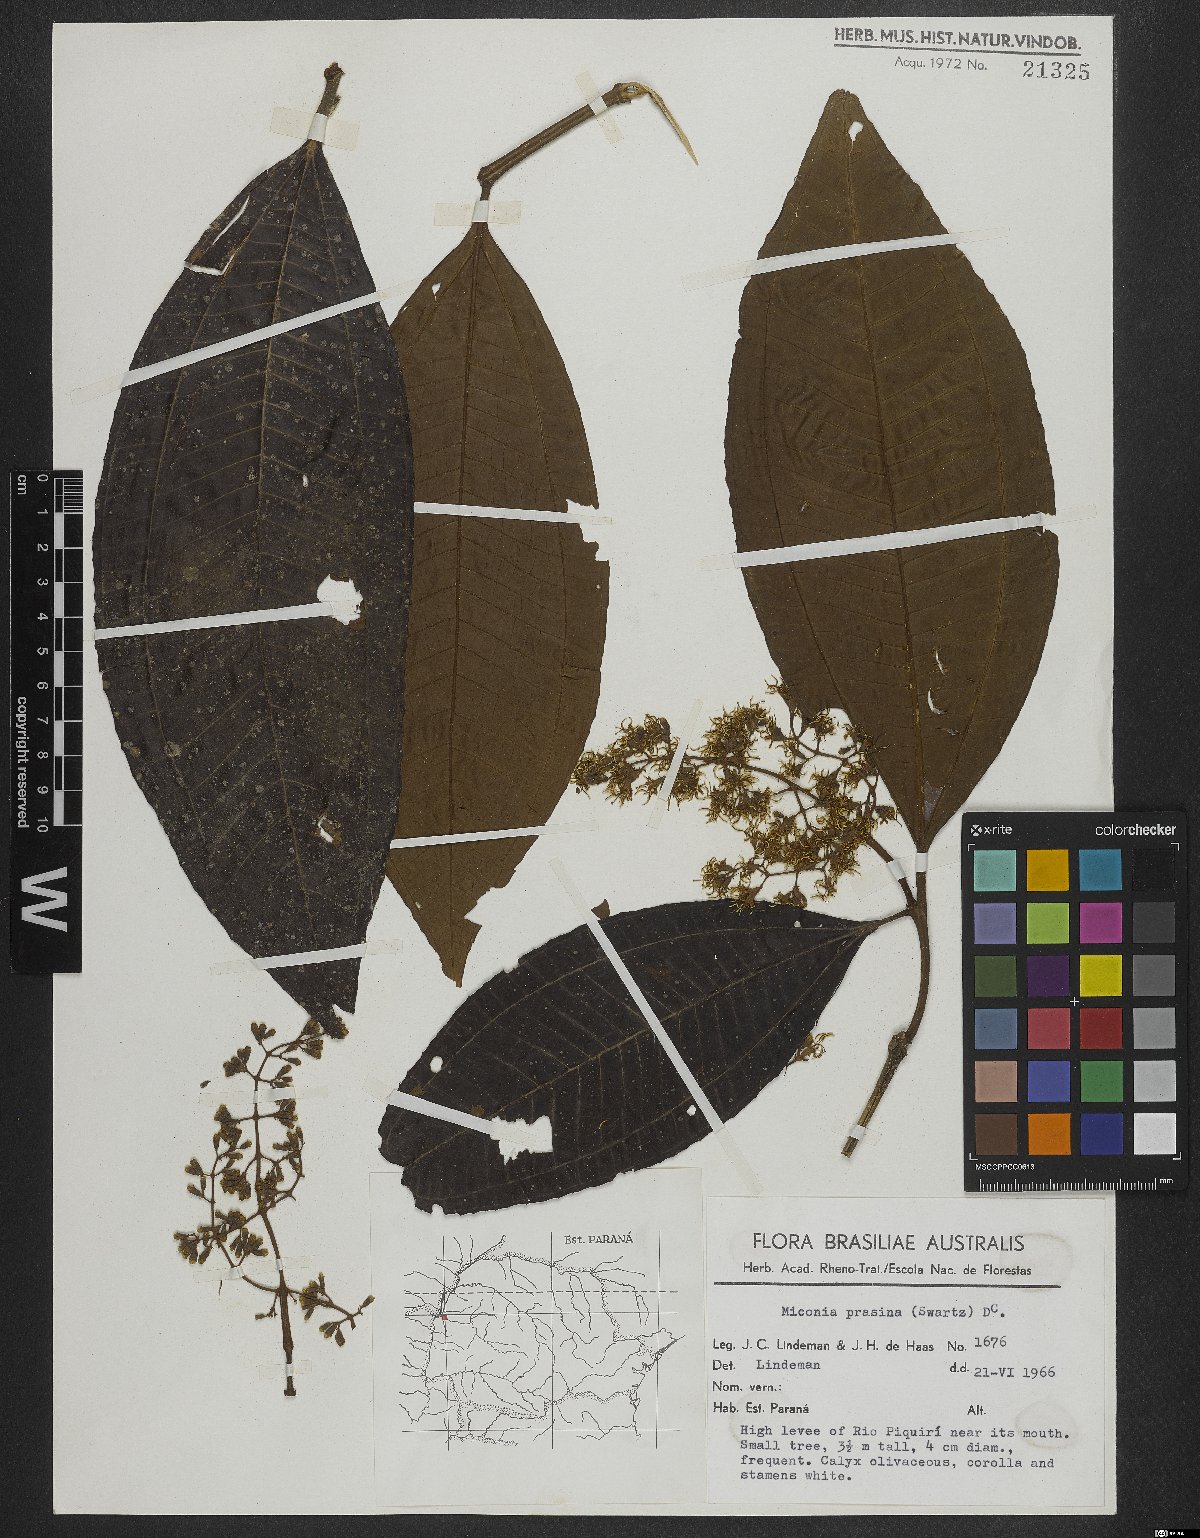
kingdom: Plantae
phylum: Tracheophyta
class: Magnoliopsida
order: Myrtales
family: Melastomataceae
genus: Miconia
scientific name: Miconia prasina
